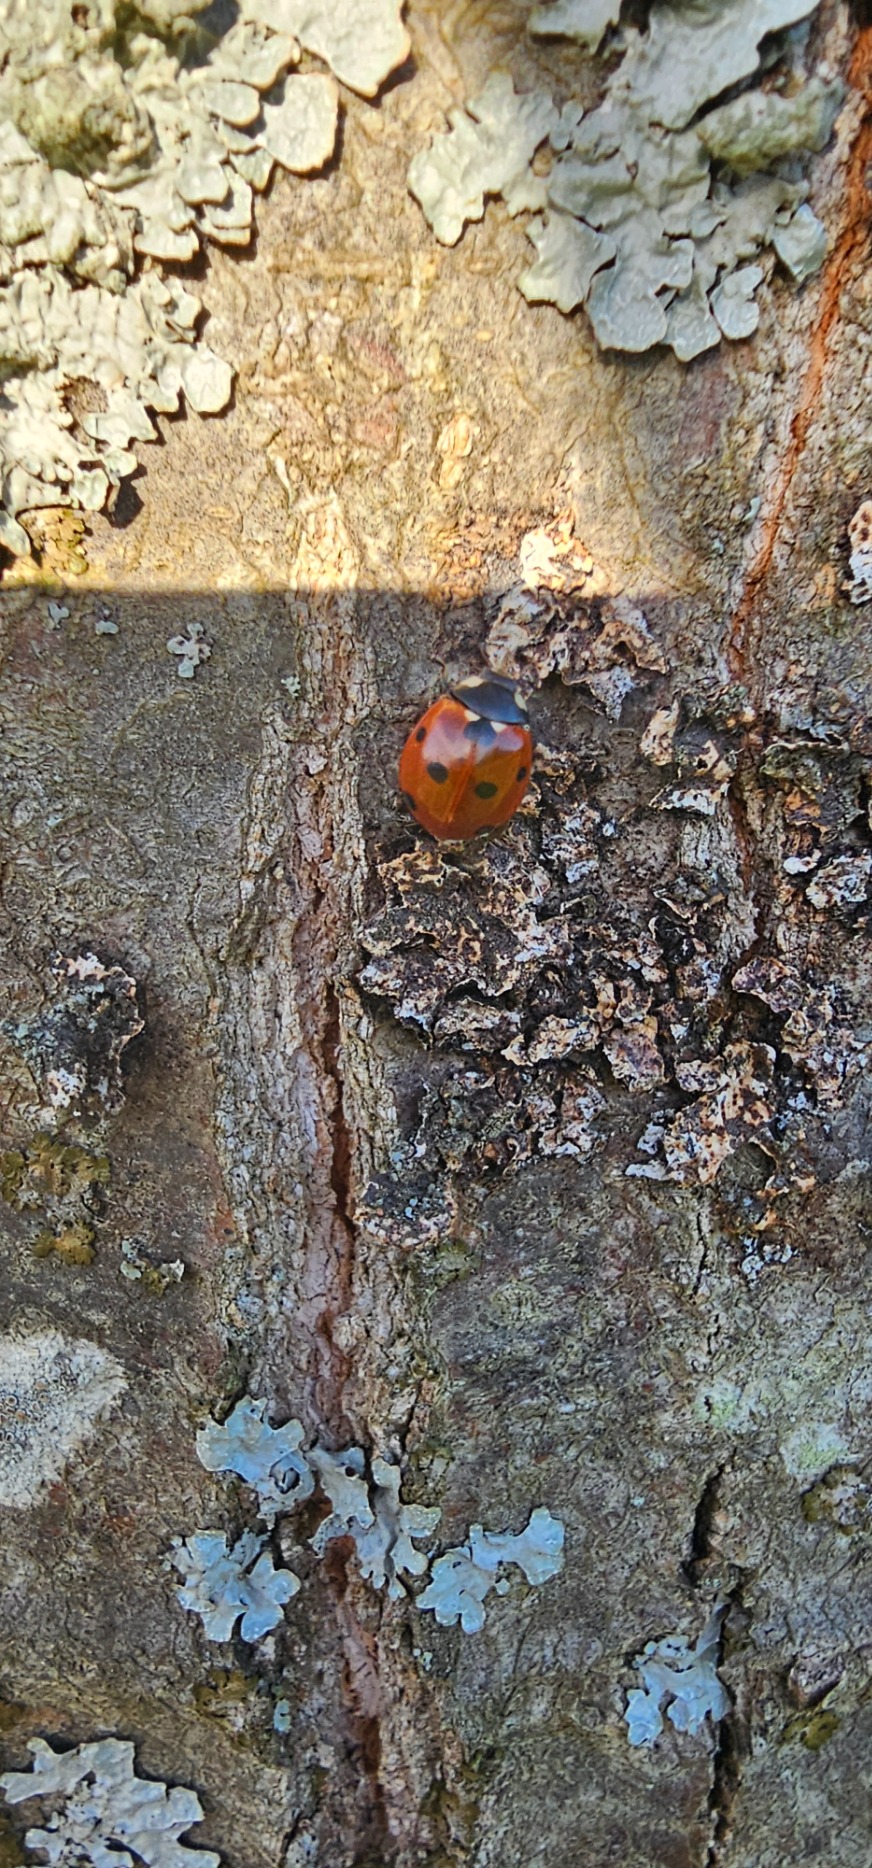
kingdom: Animalia
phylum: Arthropoda
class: Insecta
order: Coleoptera
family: Coccinellidae
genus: Coccinella
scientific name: Coccinella septempunctata
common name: Syvplettet mariehøne
